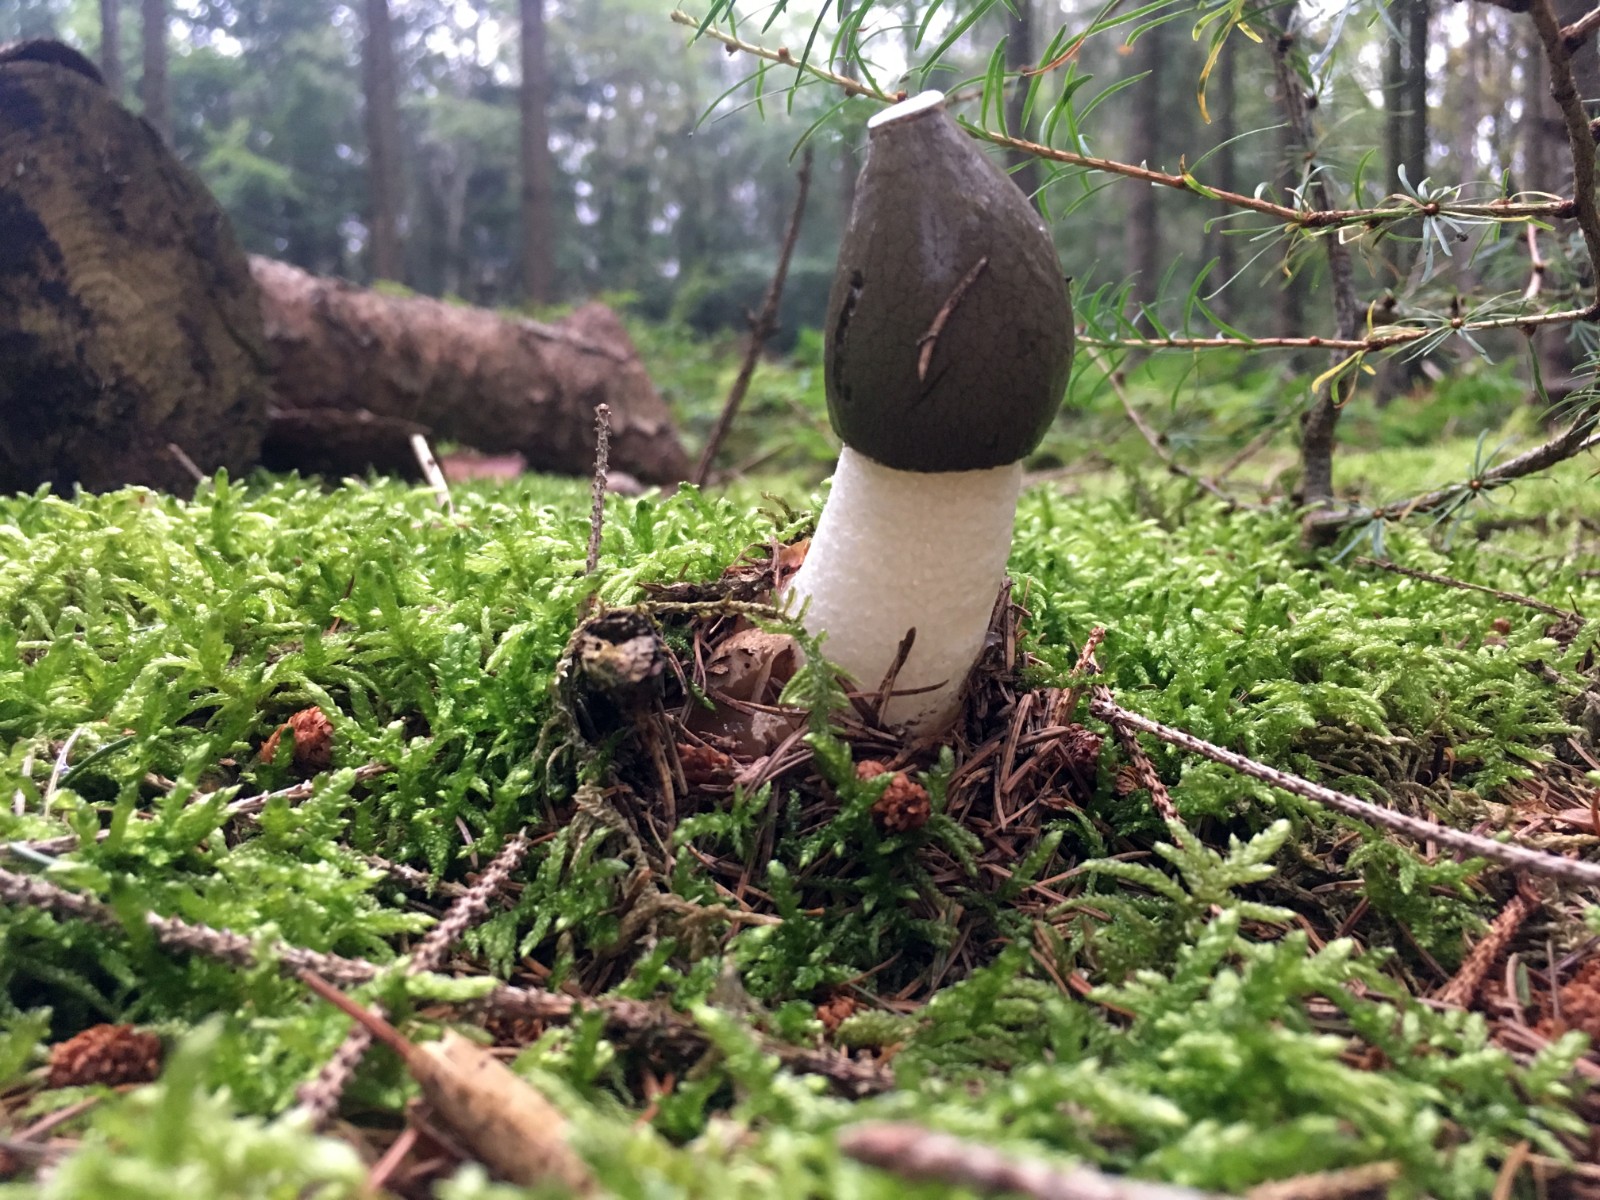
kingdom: Fungi
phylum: Basidiomycota
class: Agaricomycetes
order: Phallales
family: Phallaceae
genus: Phallus
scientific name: Phallus impudicus
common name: almindelig stinksvamp
